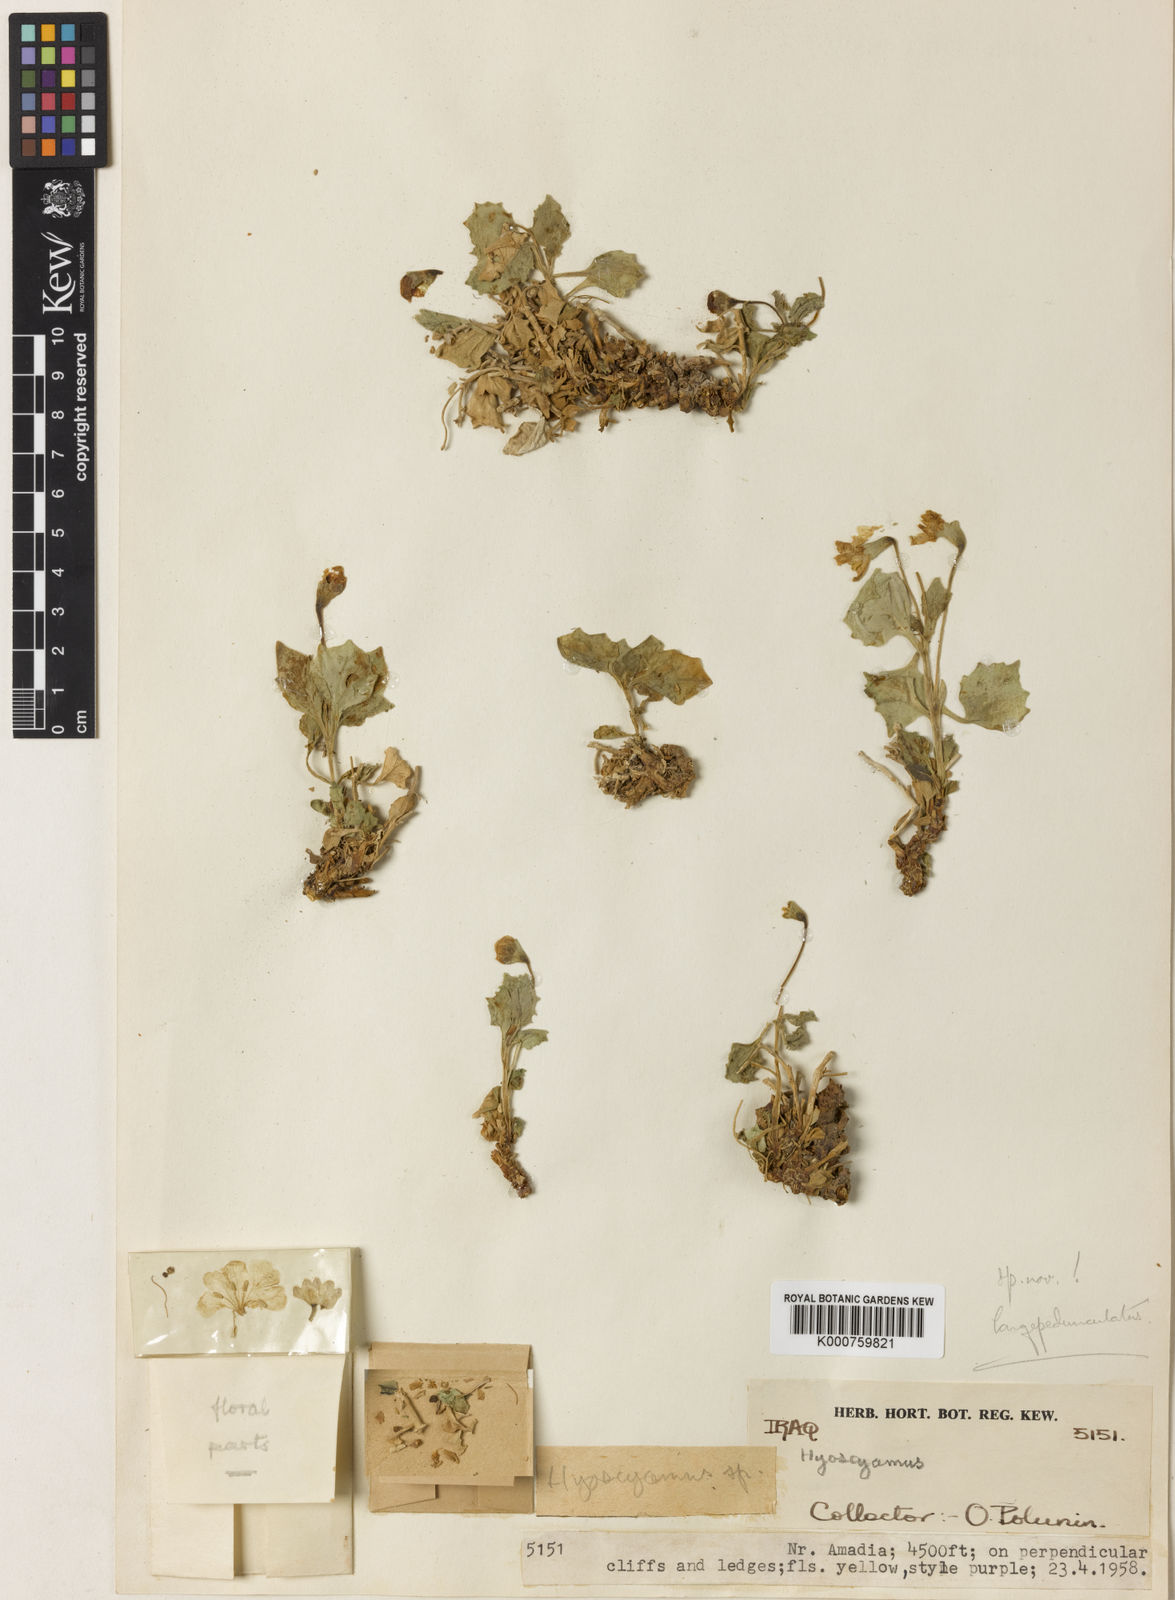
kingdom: Plantae
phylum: Tracheophyta
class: Magnoliopsida
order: Solanales
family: Solanaceae
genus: Hyoscyamus
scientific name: Hyoscyamus
